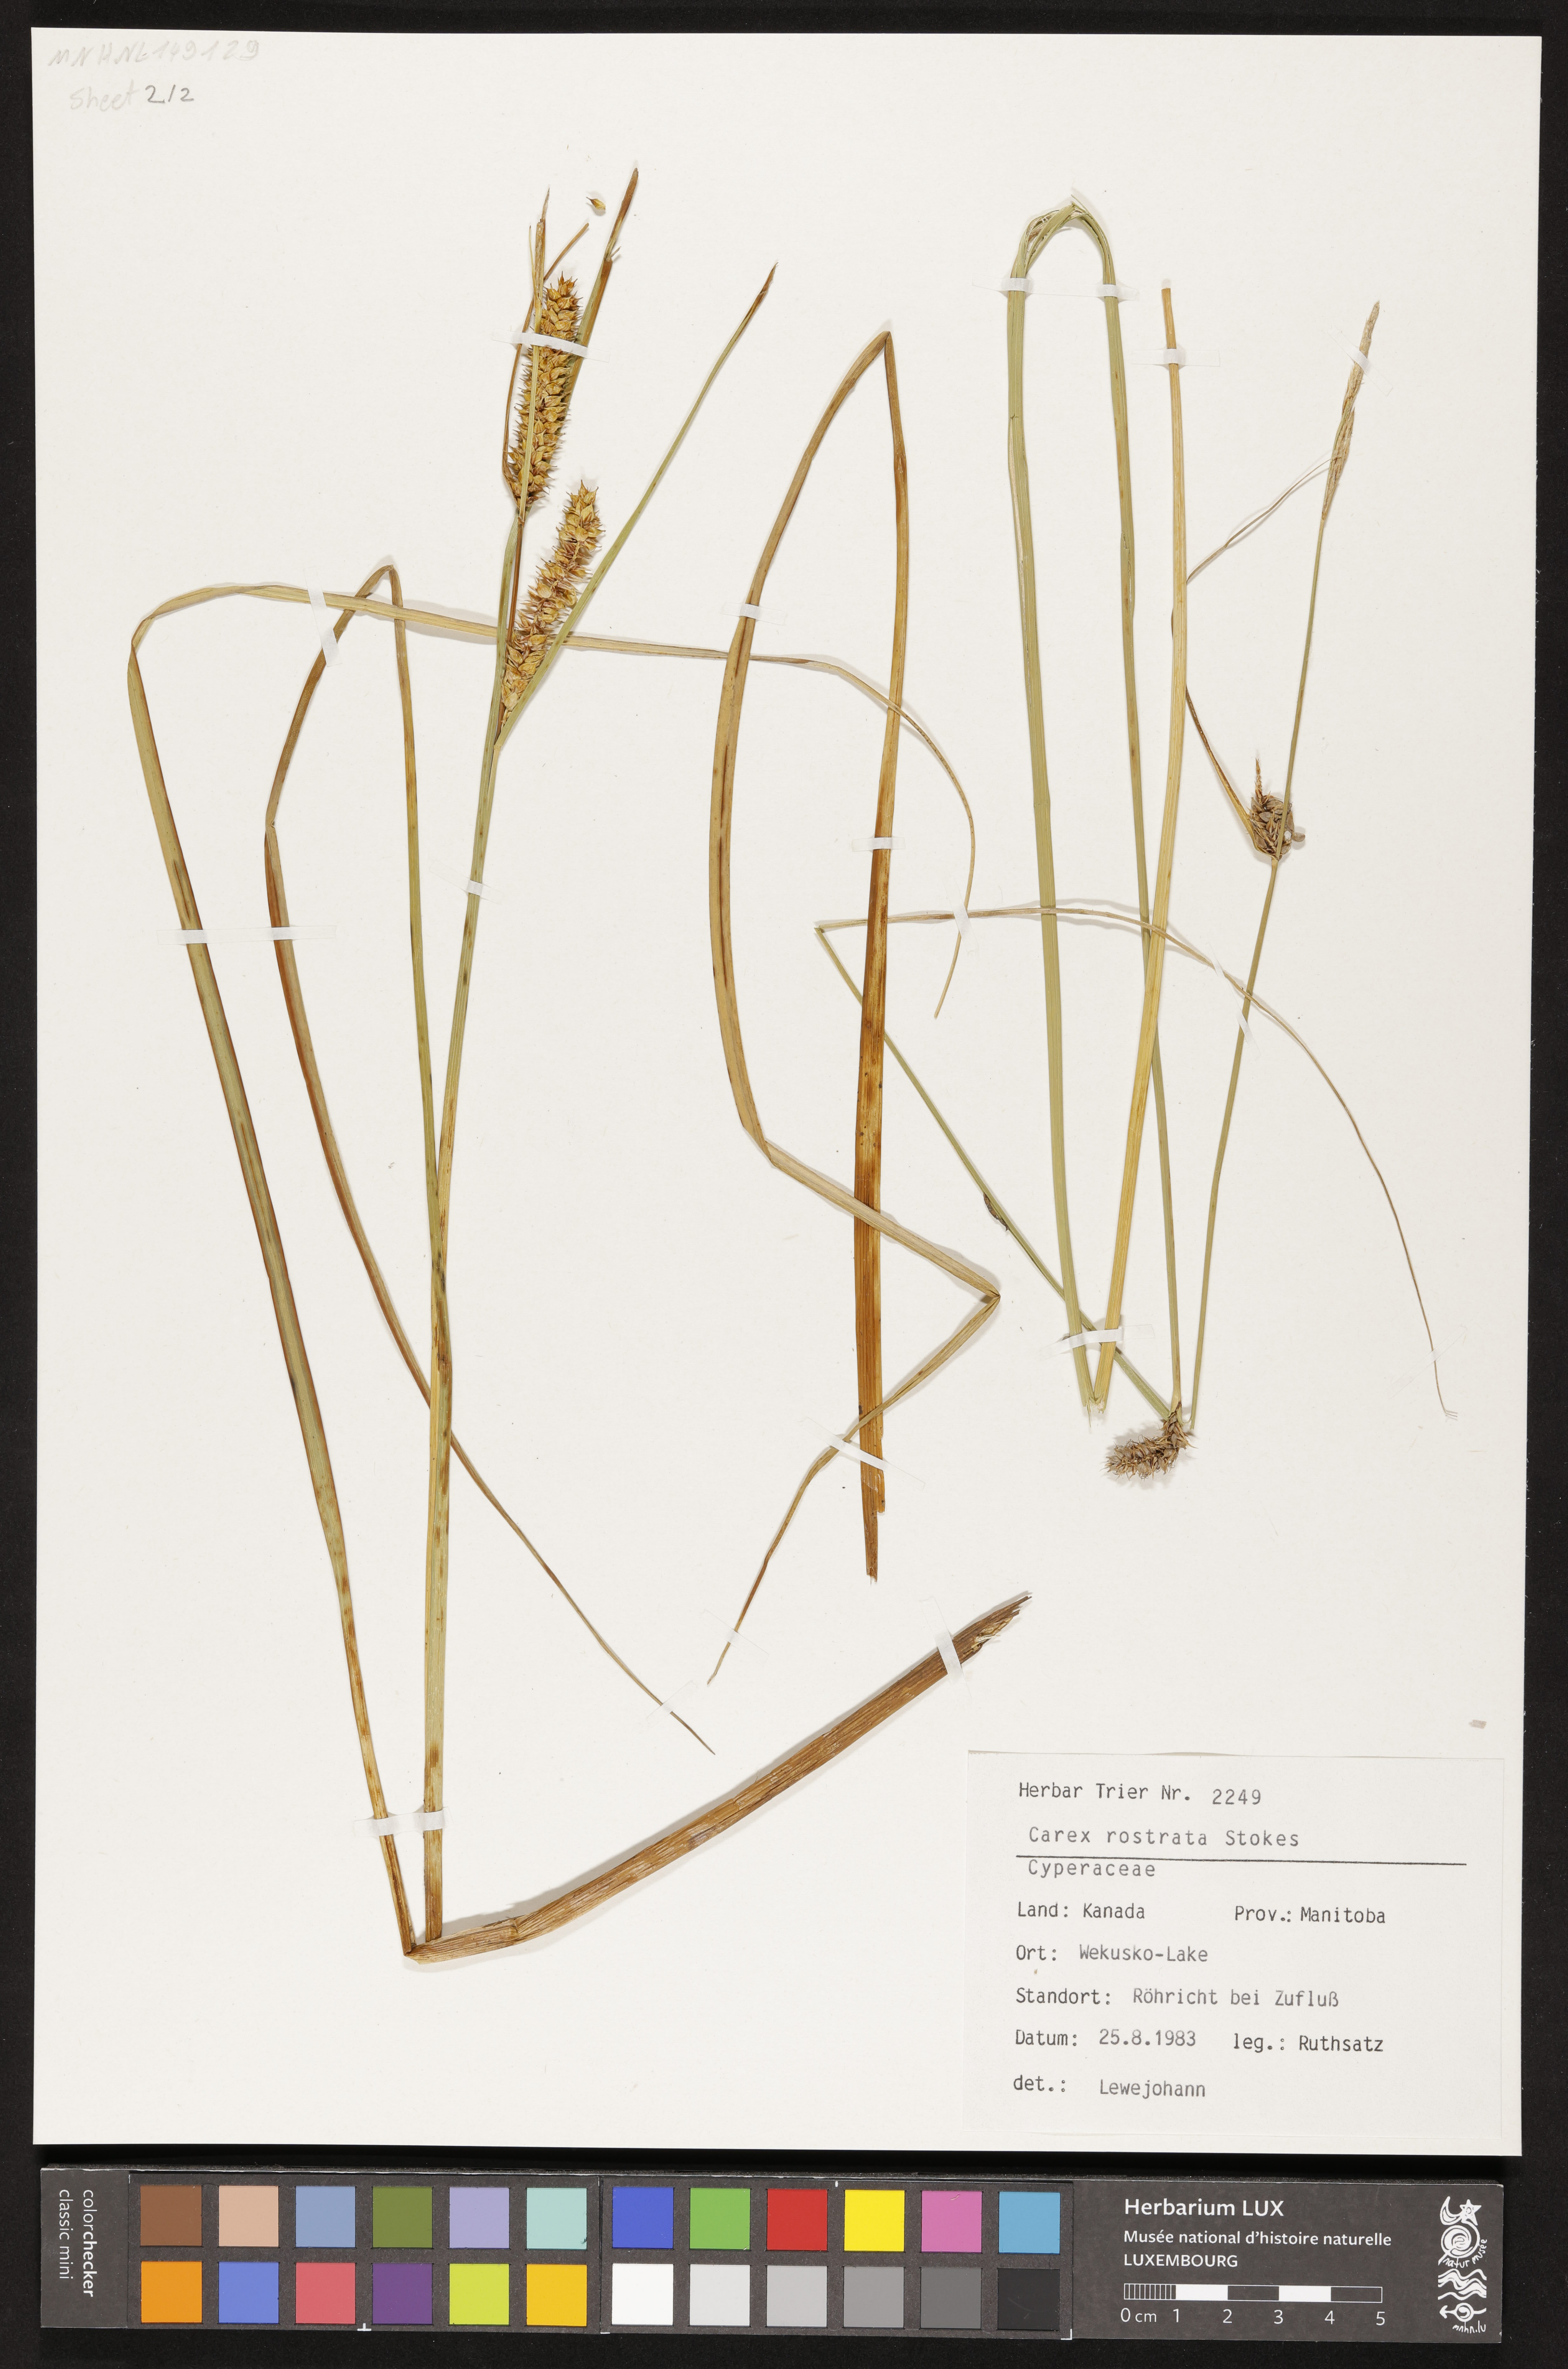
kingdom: Plantae
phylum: Tracheophyta
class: Liliopsida
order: Poales
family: Cyperaceae
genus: Carex
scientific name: Carex rostrata
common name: Bottle sedge
